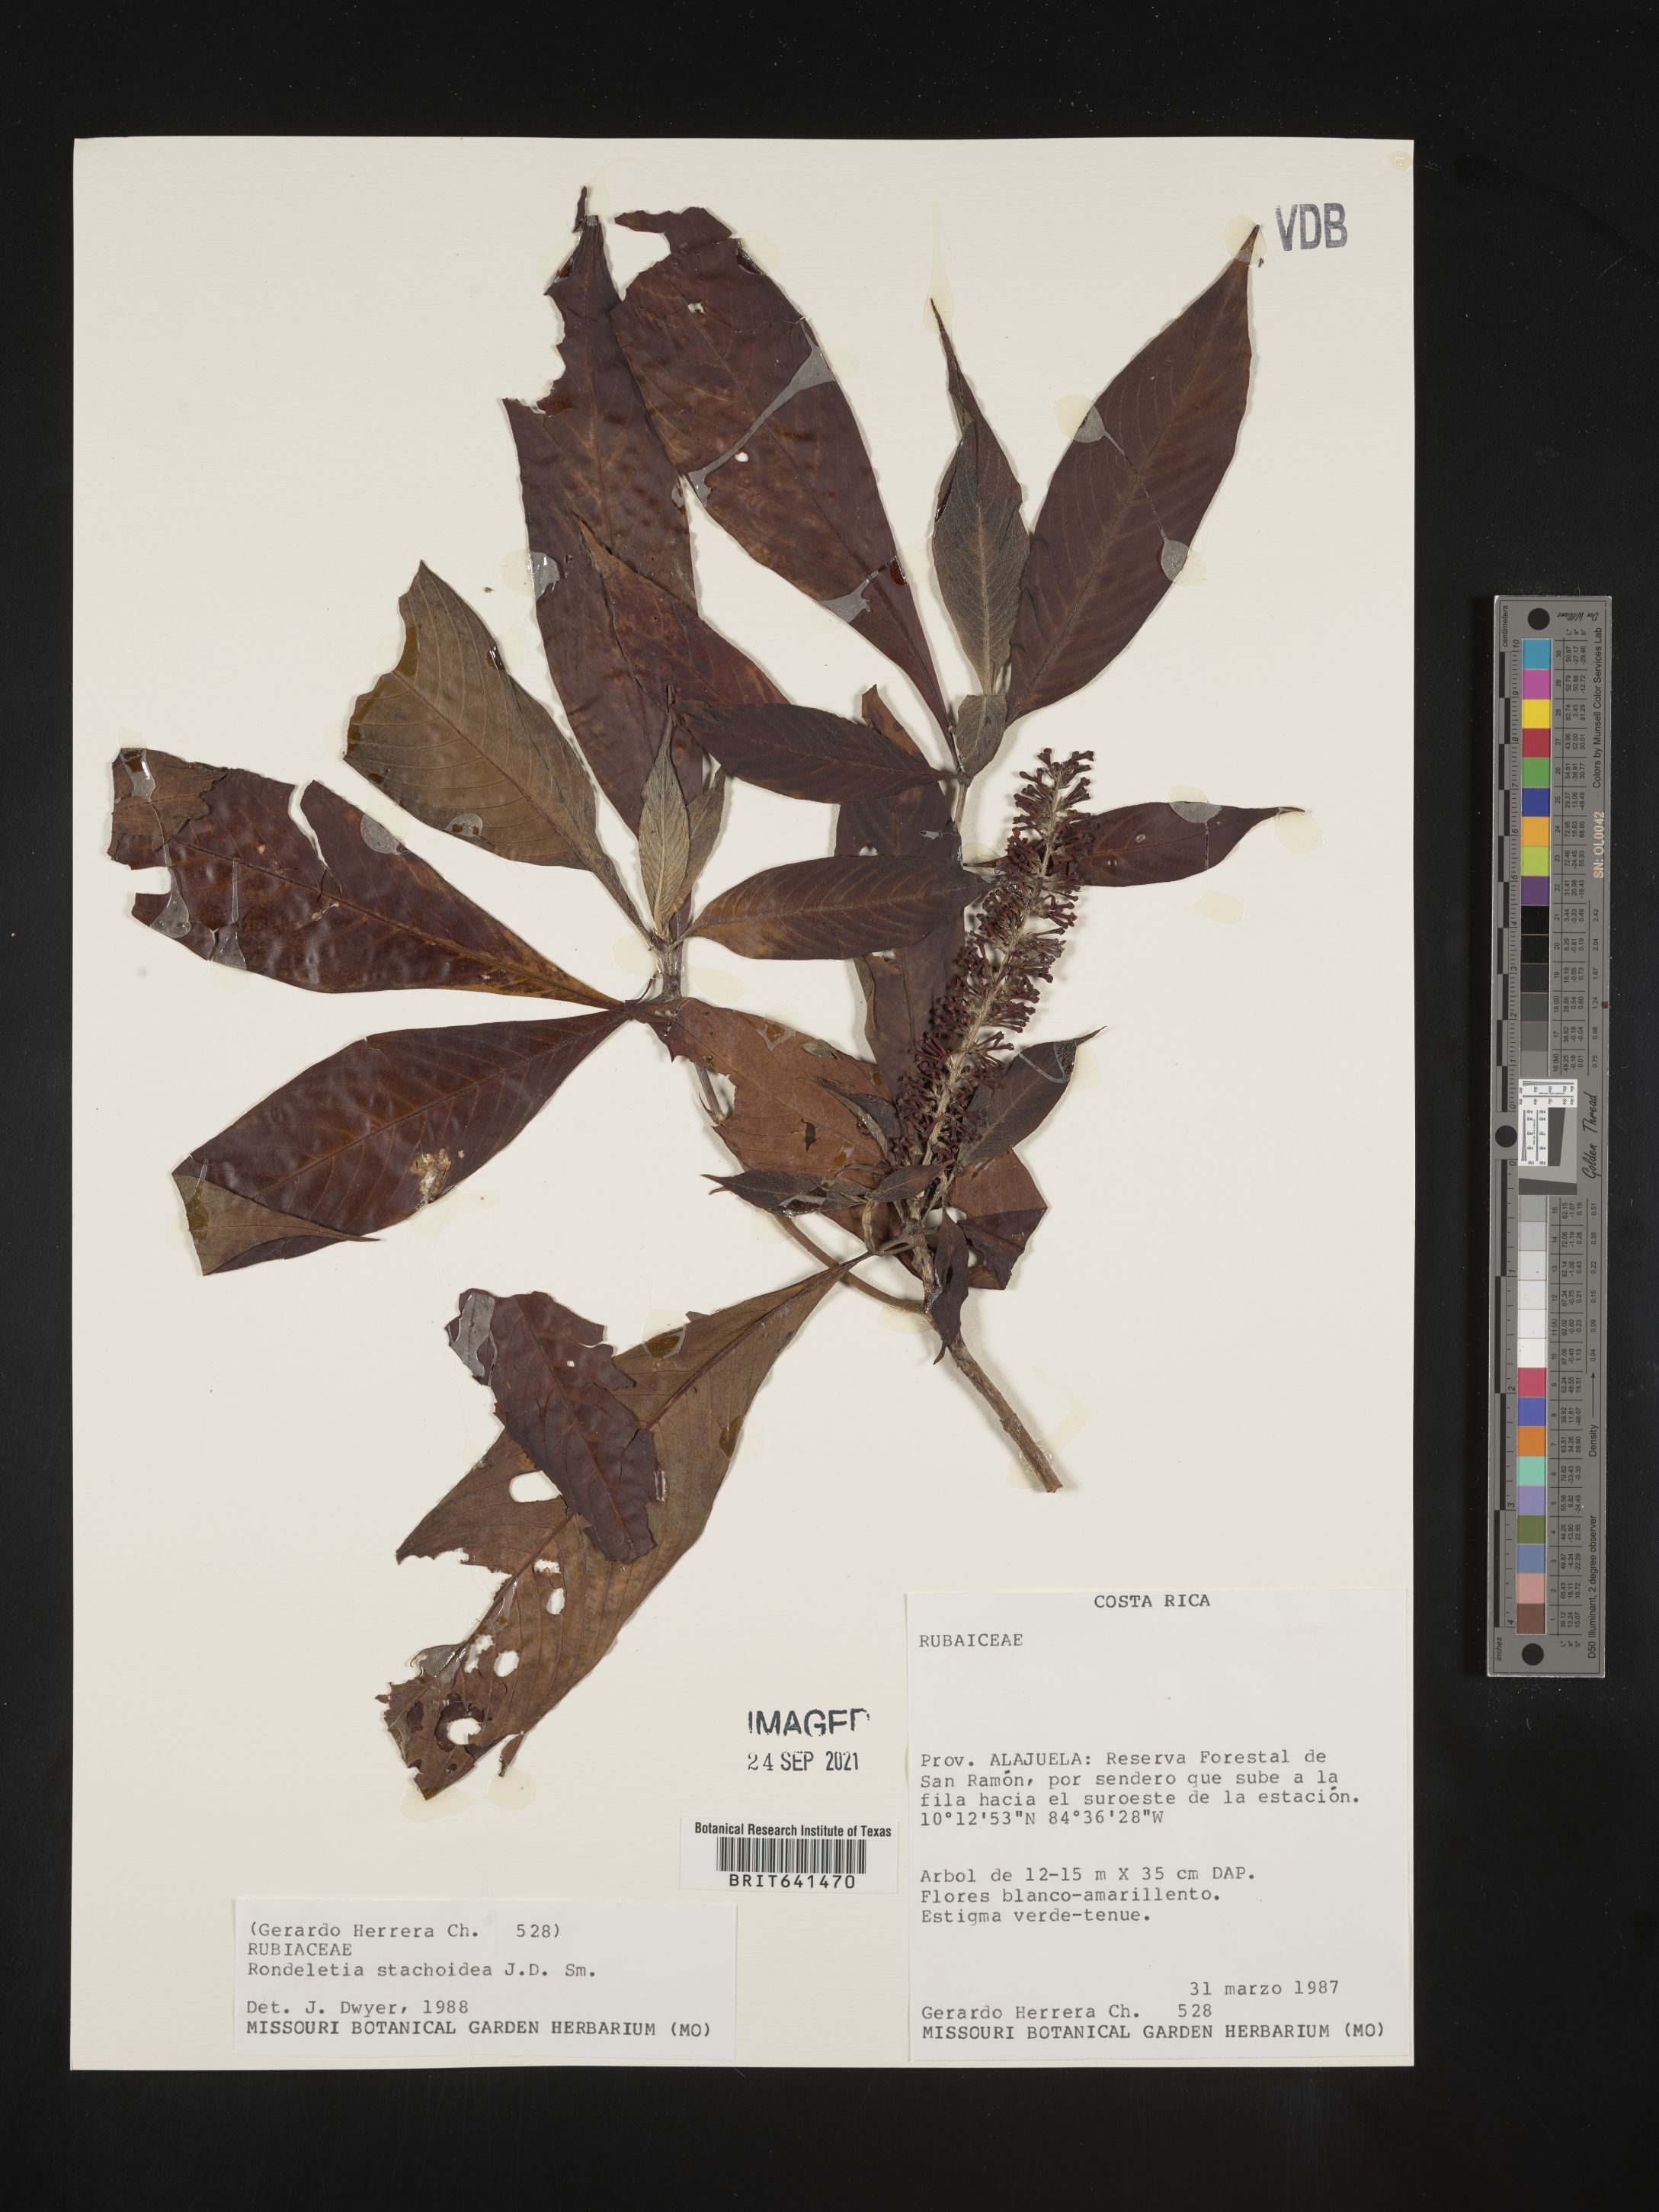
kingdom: Plantae
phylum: Tracheophyta
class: Magnoliopsida
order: Gentianales
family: Rubiaceae
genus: Psychotria
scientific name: Psychotria
